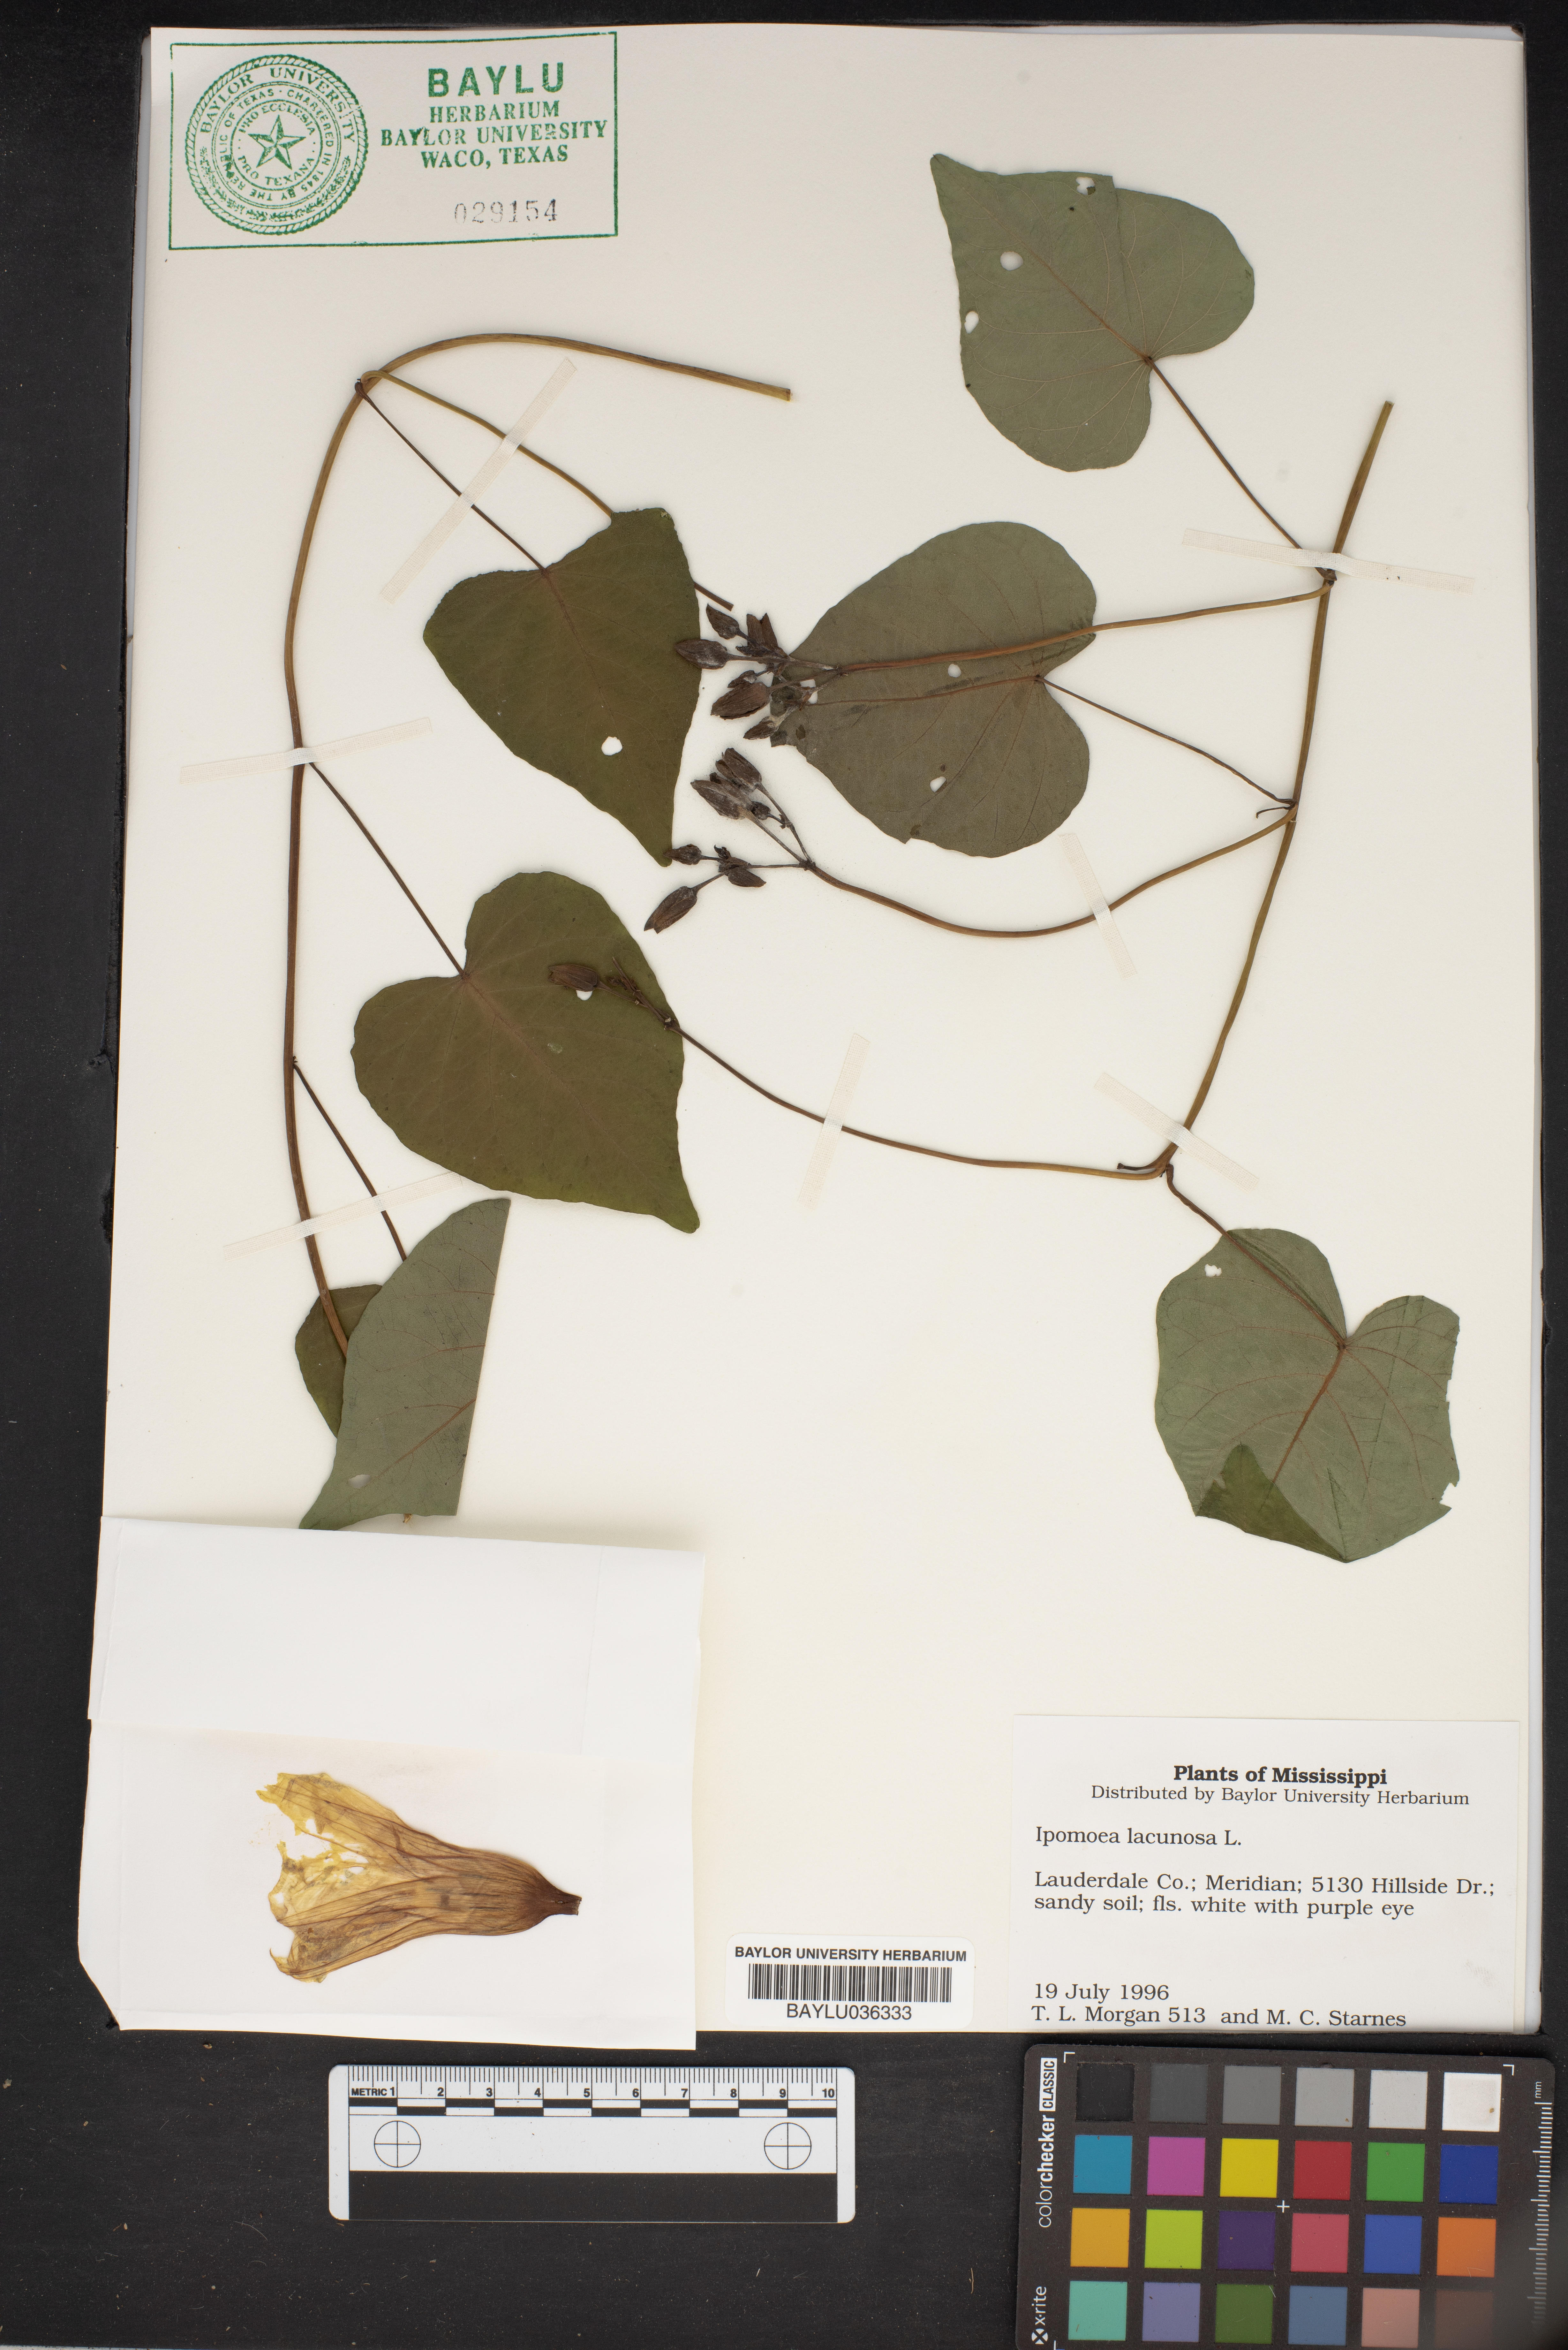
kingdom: Plantae
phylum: Tracheophyta
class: Magnoliopsida
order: Solanales
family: Convolvulaceae
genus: Ipomoea
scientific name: Ipomoea lacunosa
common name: White morning-glory
